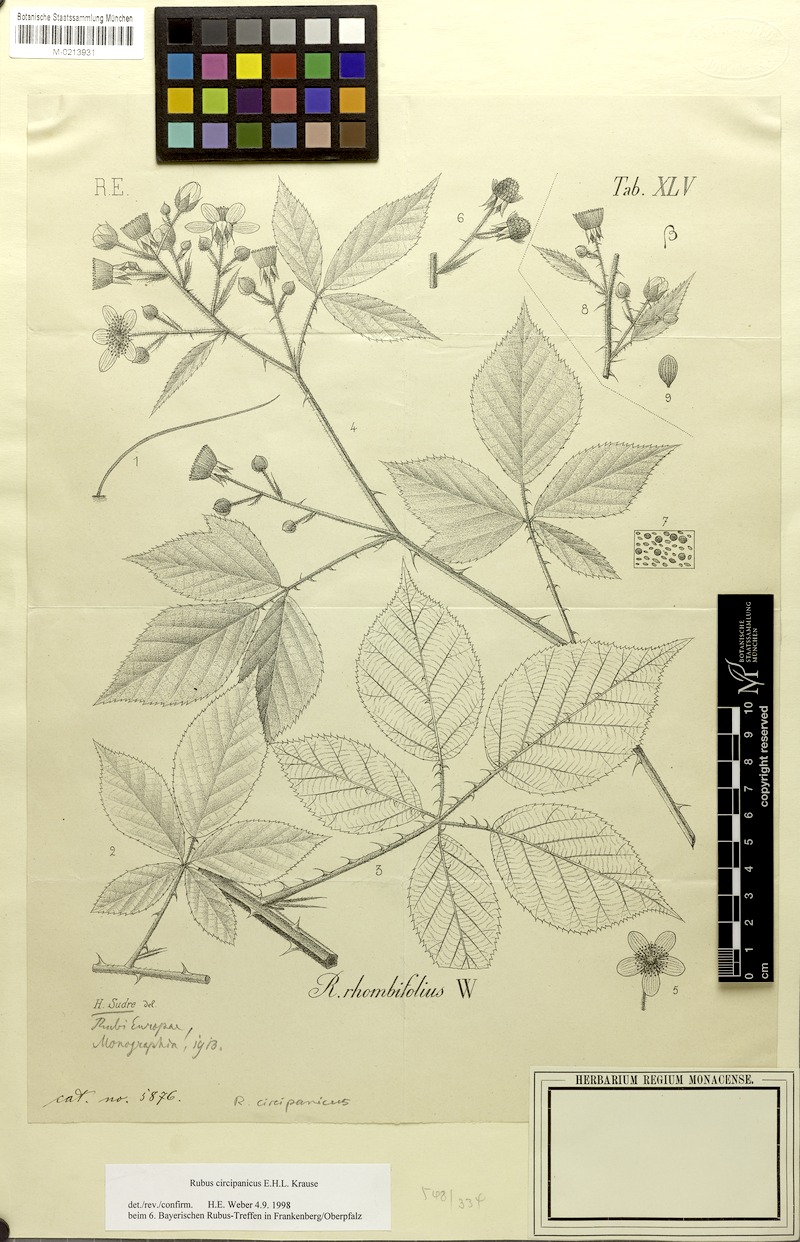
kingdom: Plantae
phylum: Tracheophyta
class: Magnoliopsida
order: Rosales
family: Rosaceae
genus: Rubus
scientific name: Rubus circipanicus
